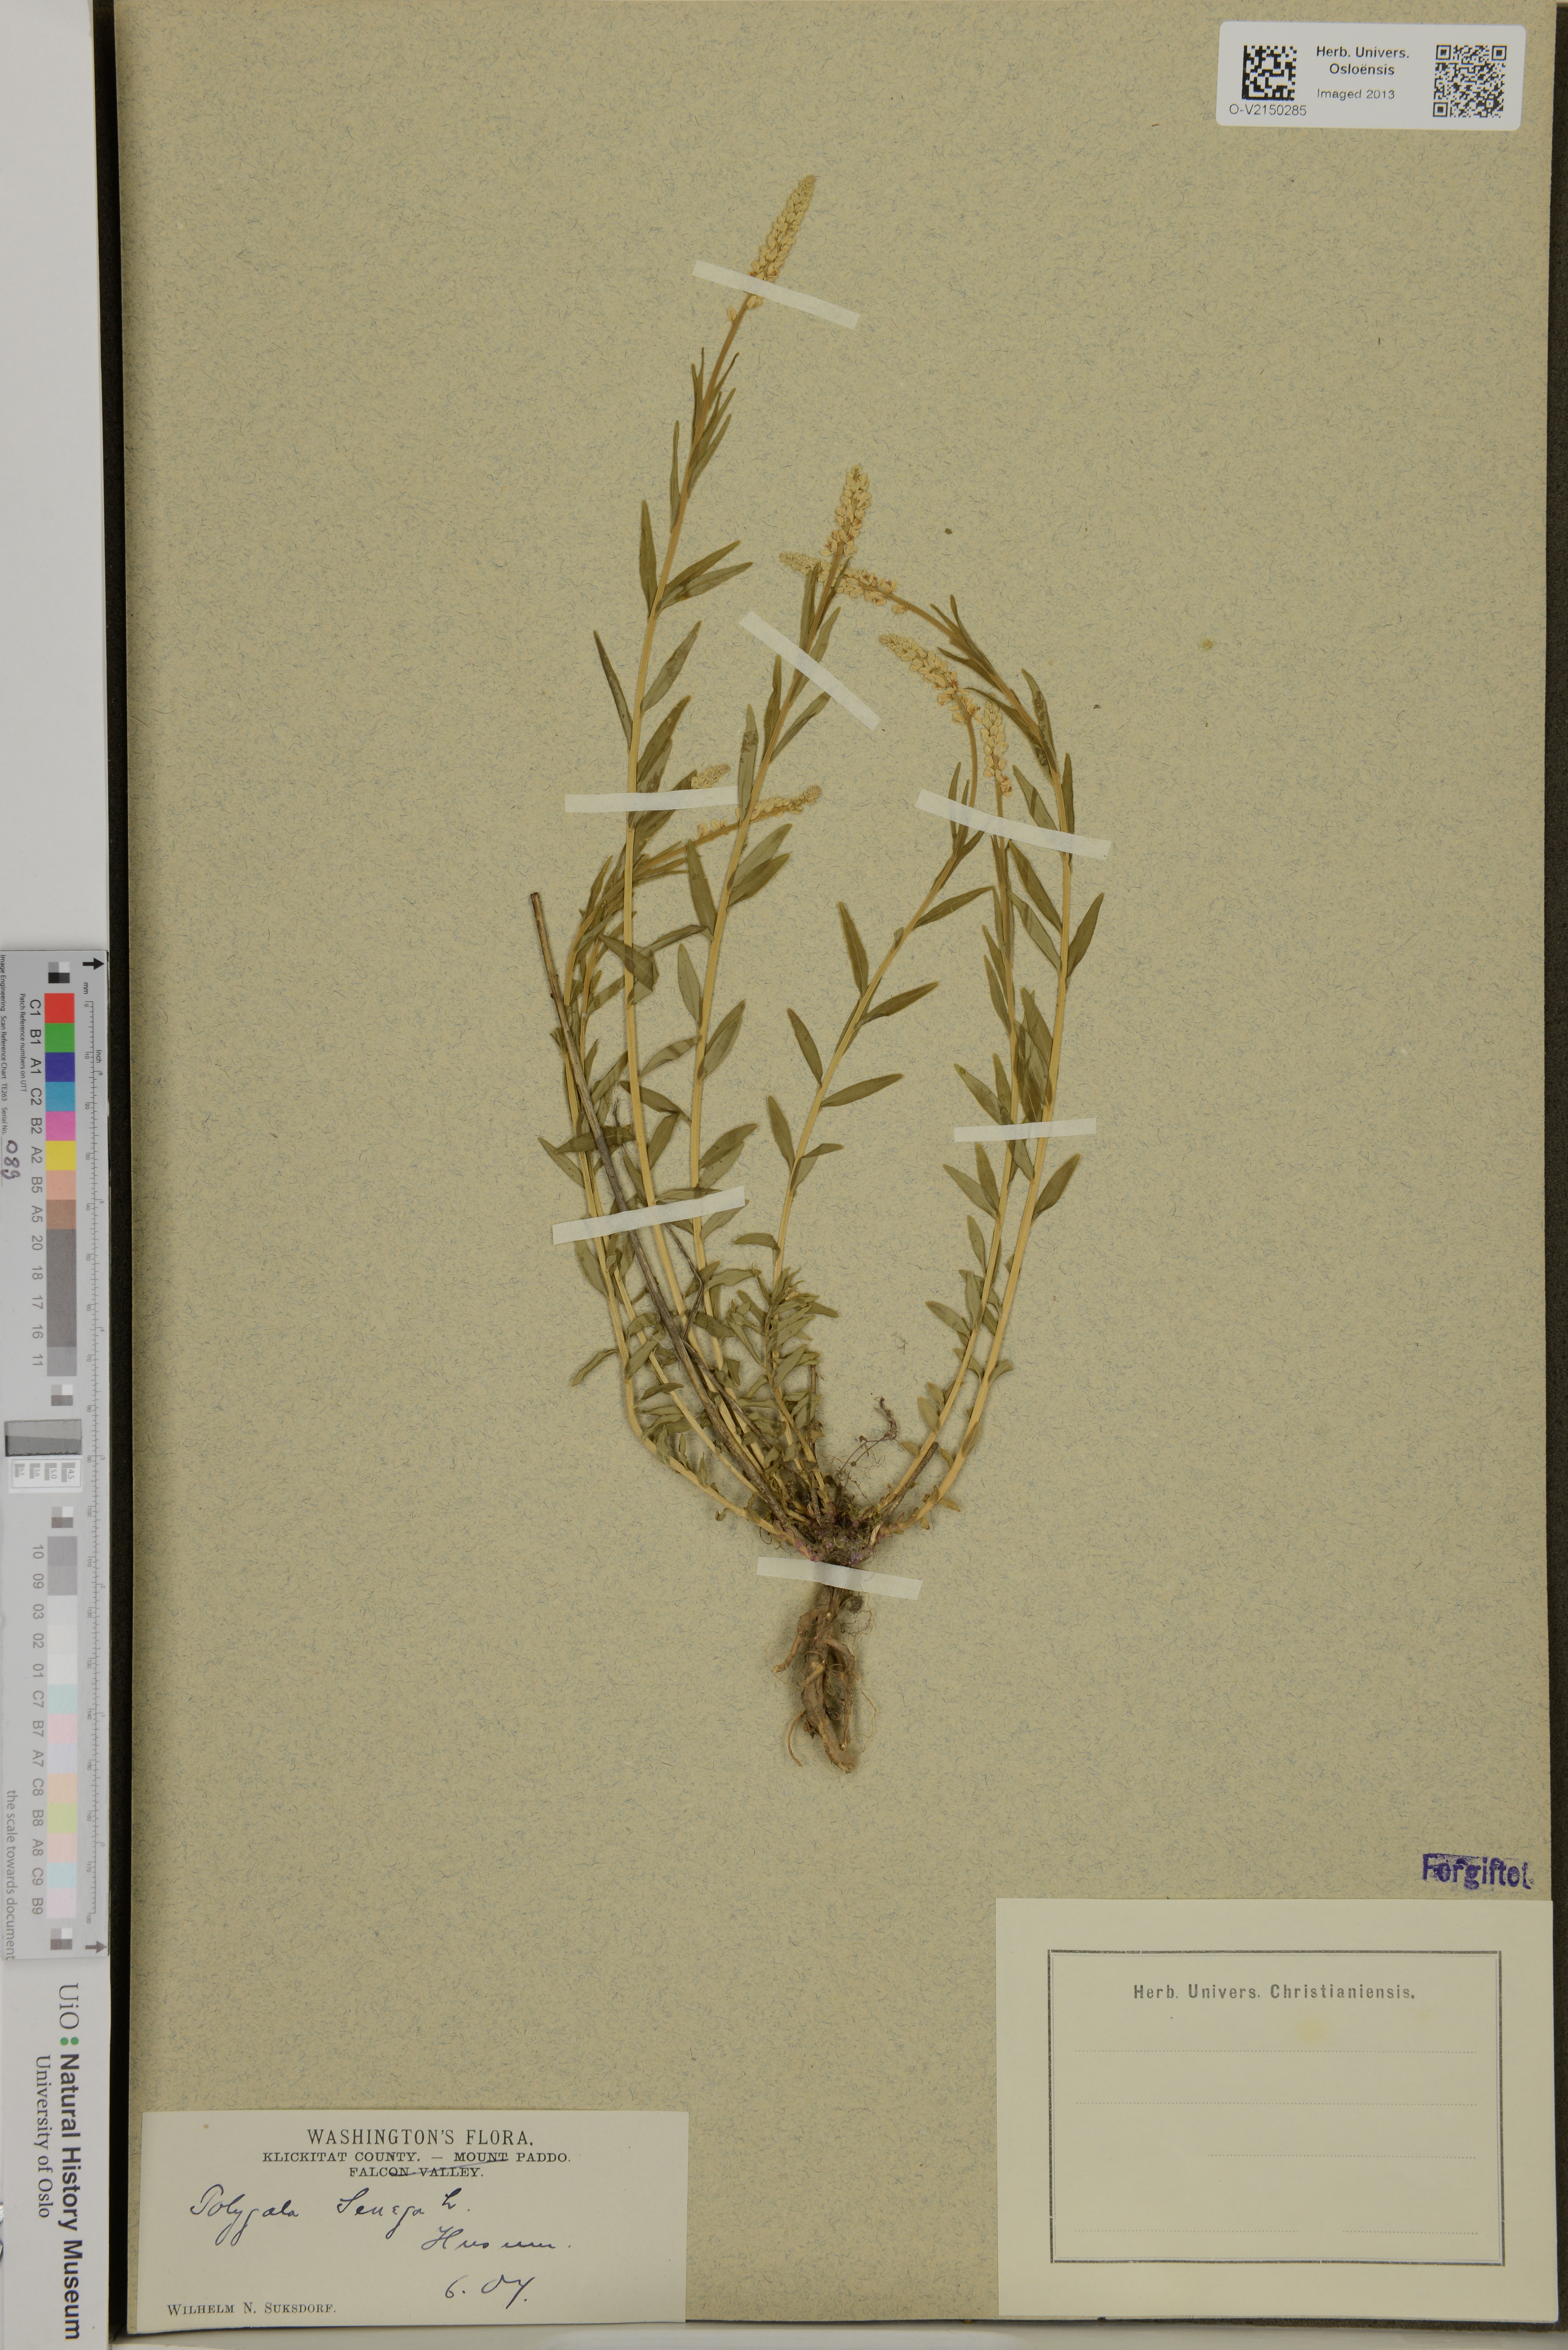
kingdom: Plantae
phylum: Tracheophyta
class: Magnoliopsida
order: Fabales
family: Polygalaceae
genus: Polygala
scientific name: Polygala senega
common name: Seneca snakeroot
